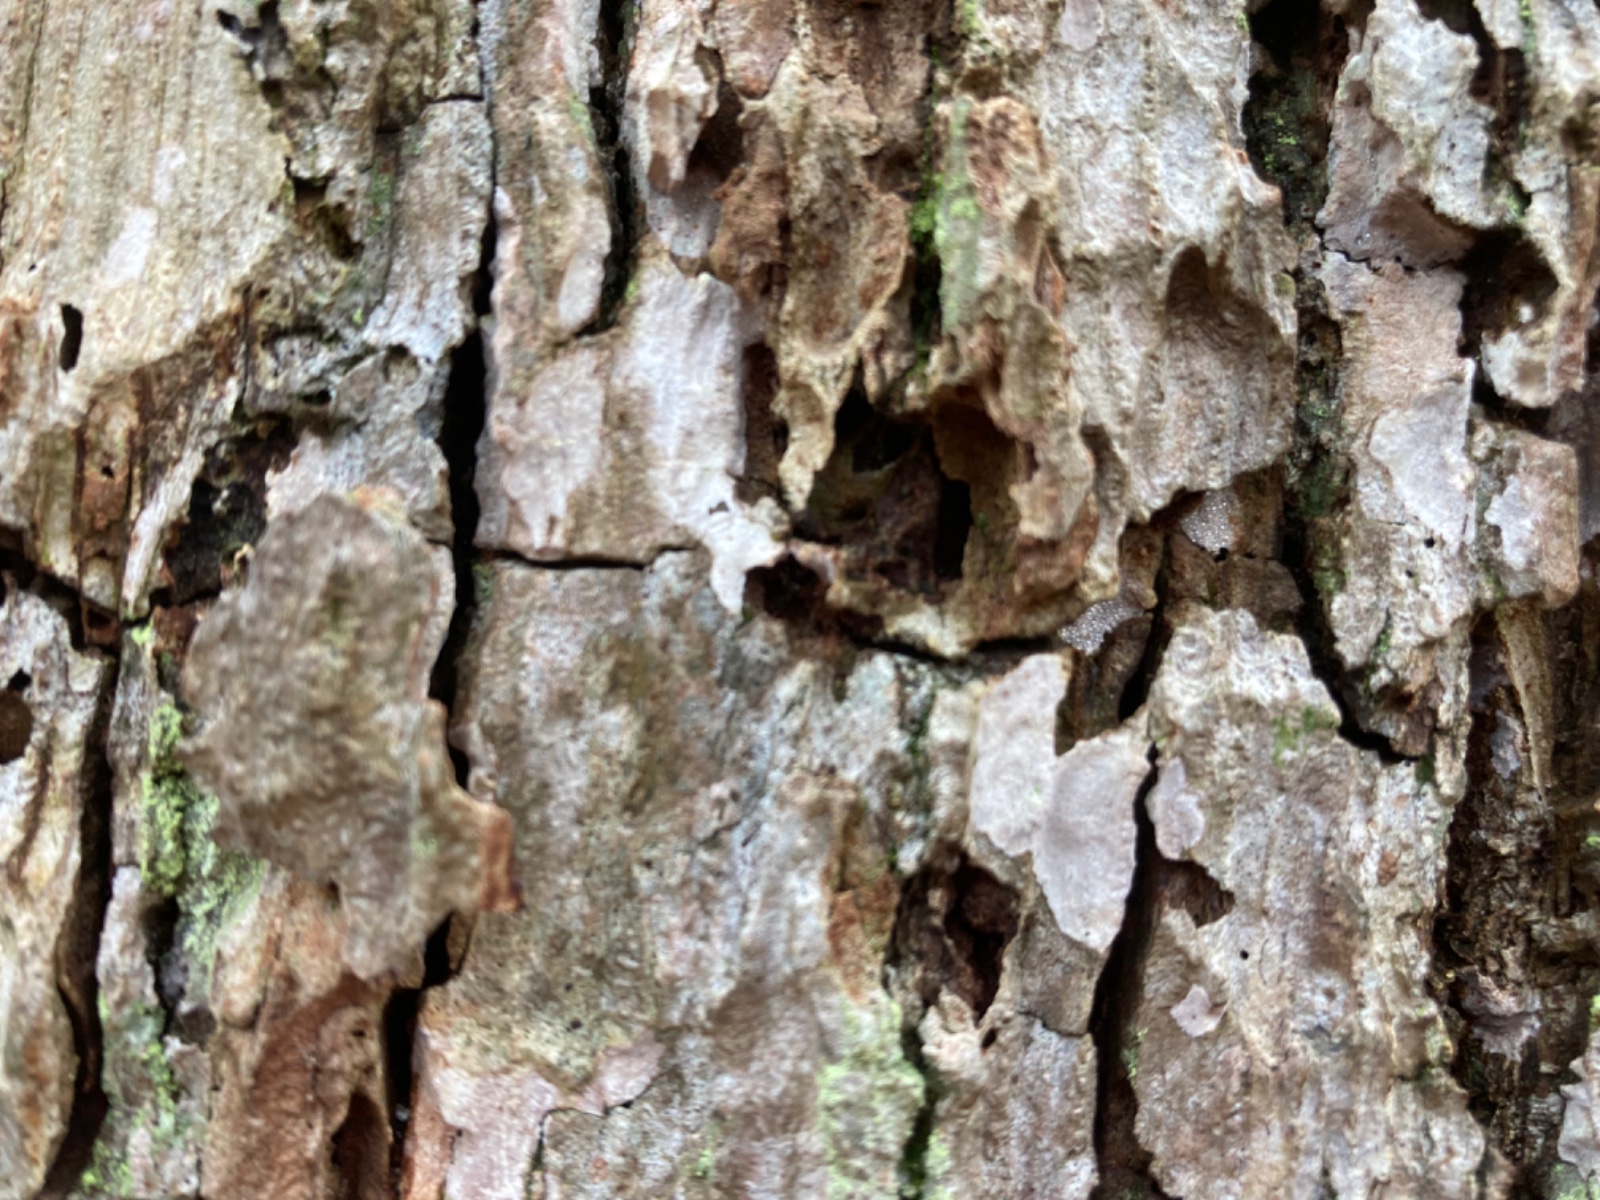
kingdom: Fungi
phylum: Basidiomycota
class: Agaricomycetes
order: Agaricales
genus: Dendrothele
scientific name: Dendrothele commixta
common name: ege-kalkplet
